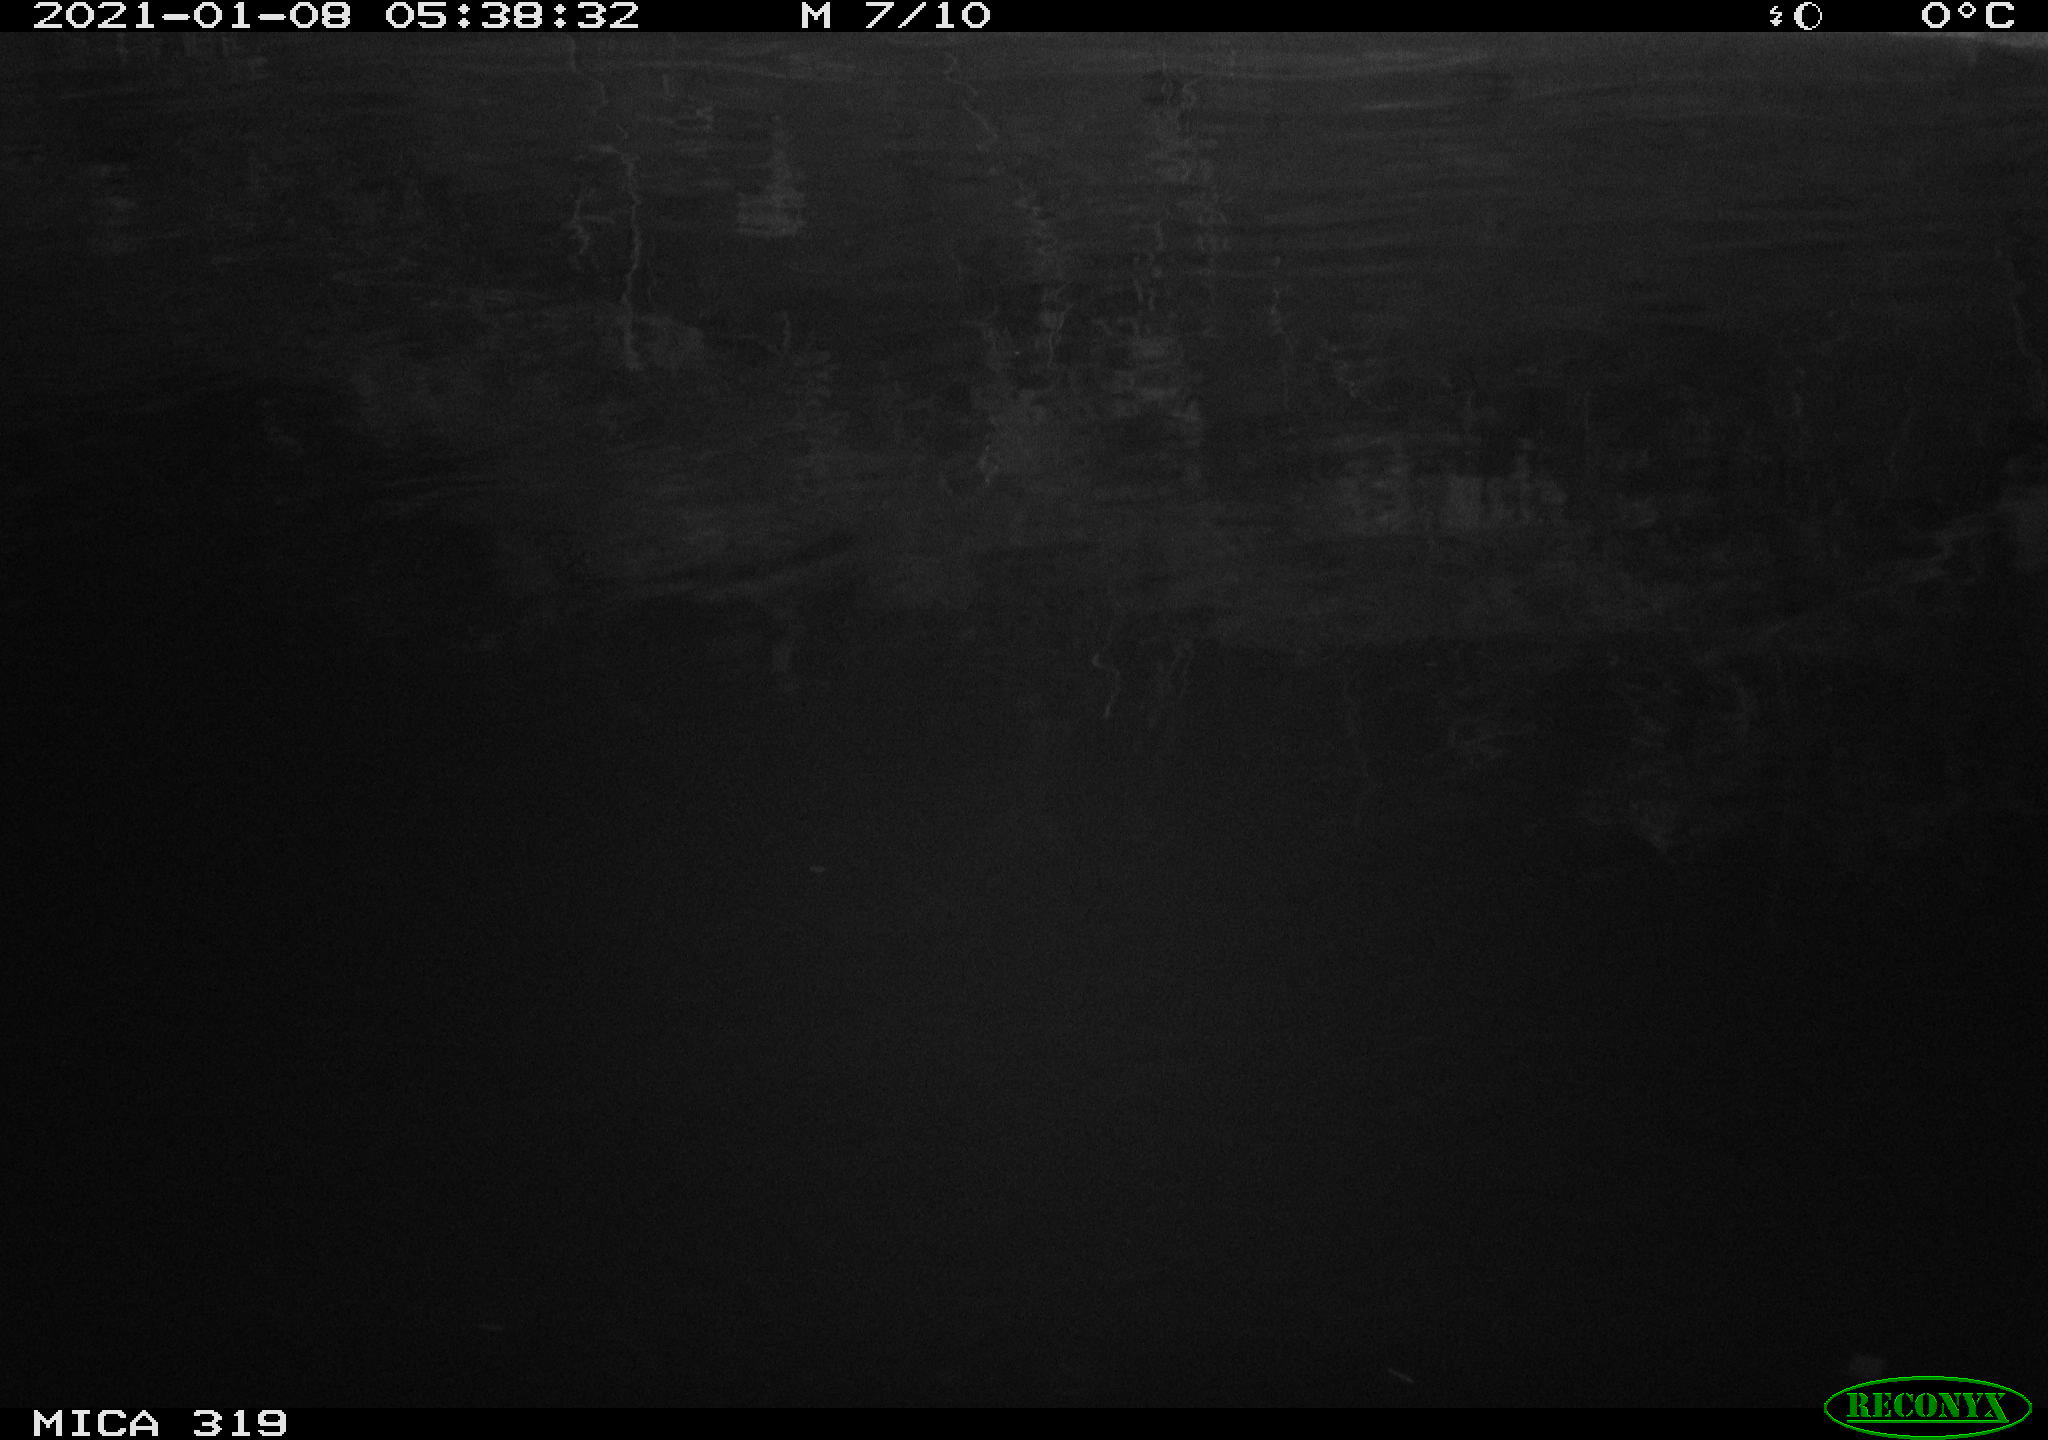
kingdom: Animalia
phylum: Chordata
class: Aves
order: Anseriformes
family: Anatidae
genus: Anas
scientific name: Anas platyrhynchos
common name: Mallard
